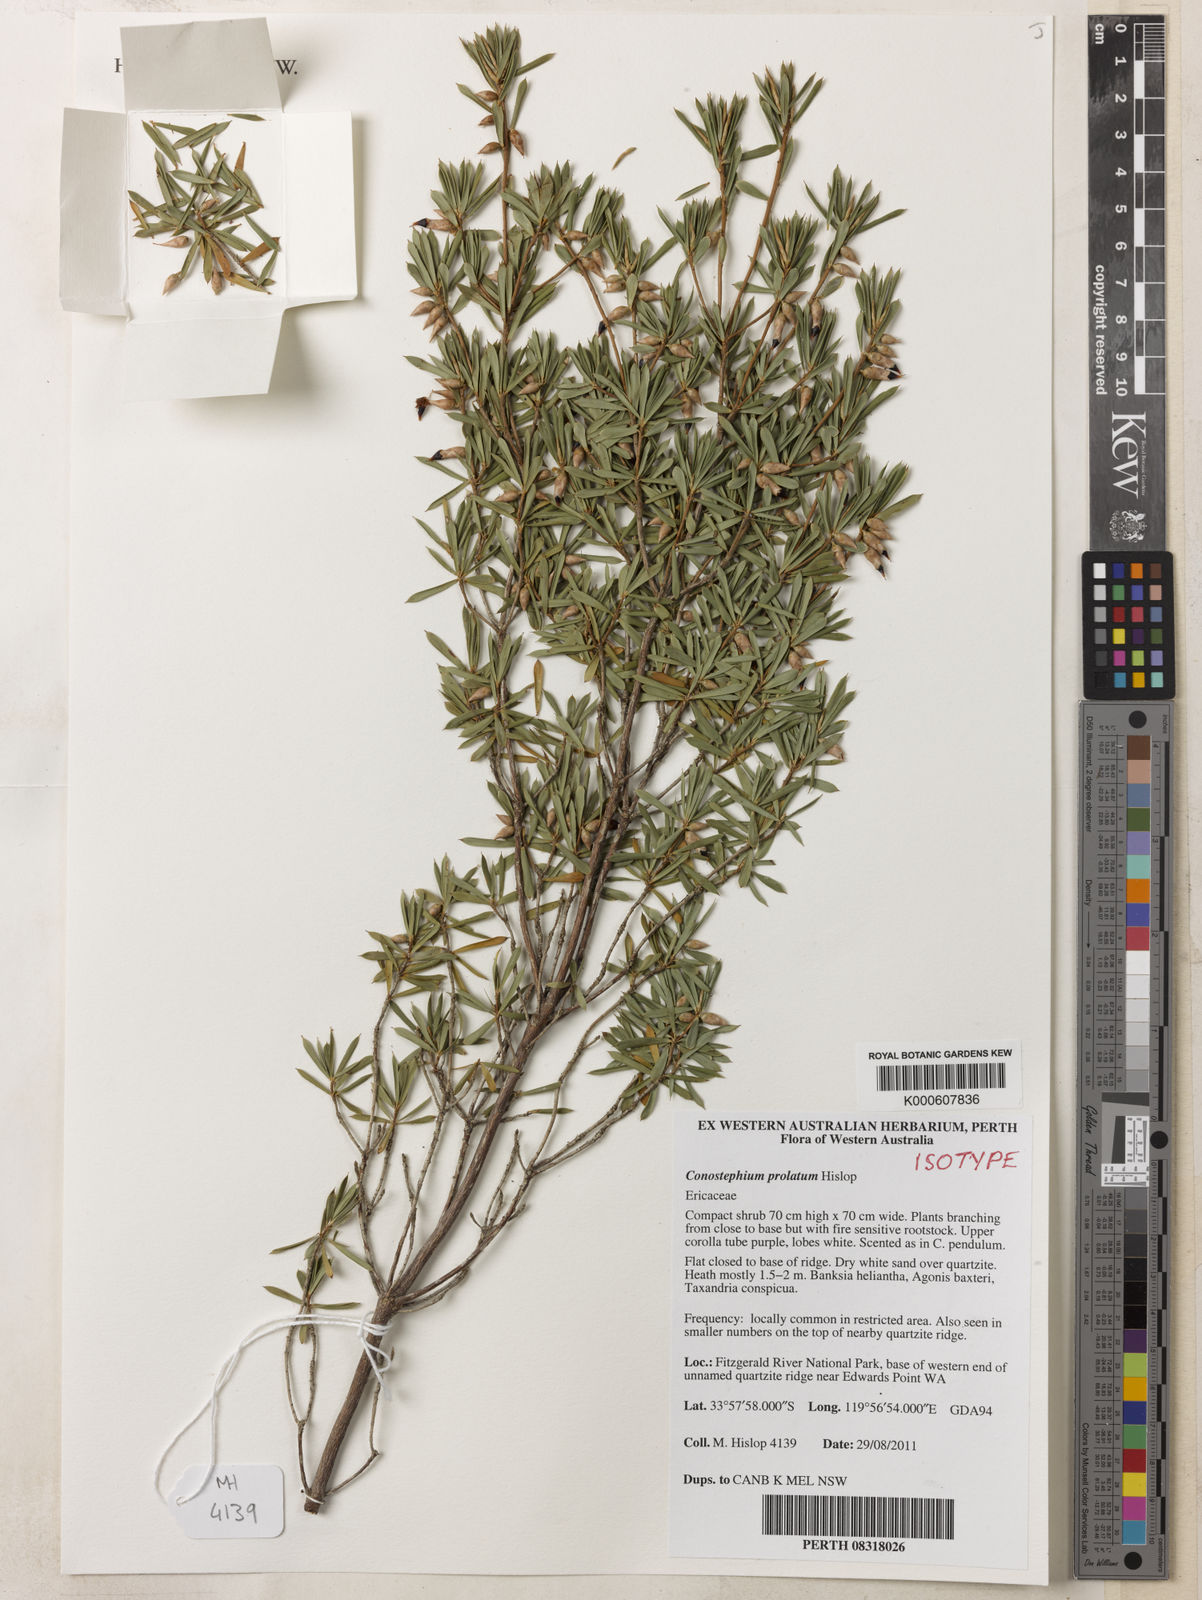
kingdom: Plantae
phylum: Tracheophyta
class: Magnoliopsida
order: Ericales
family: Ericaceae
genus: Conostephium
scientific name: Conostephium prolatum
